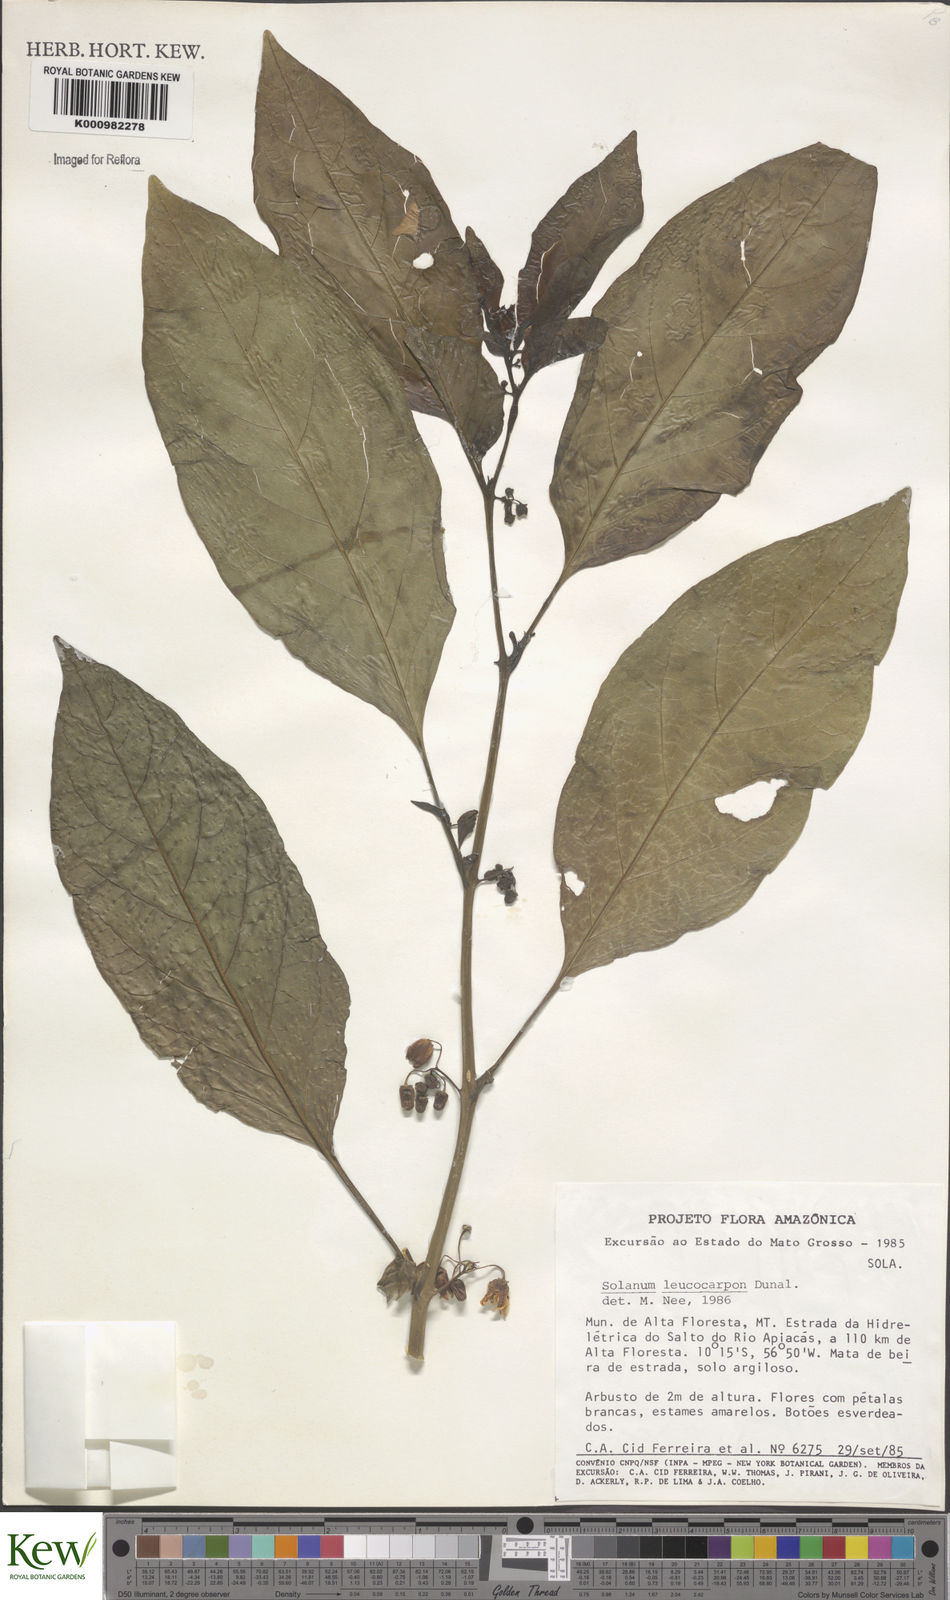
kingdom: Plantae
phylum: Tracheophyta
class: Magnoliopsida
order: Solanales
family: Solanaceae
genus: Solanum
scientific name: Solanum leucocarpon
